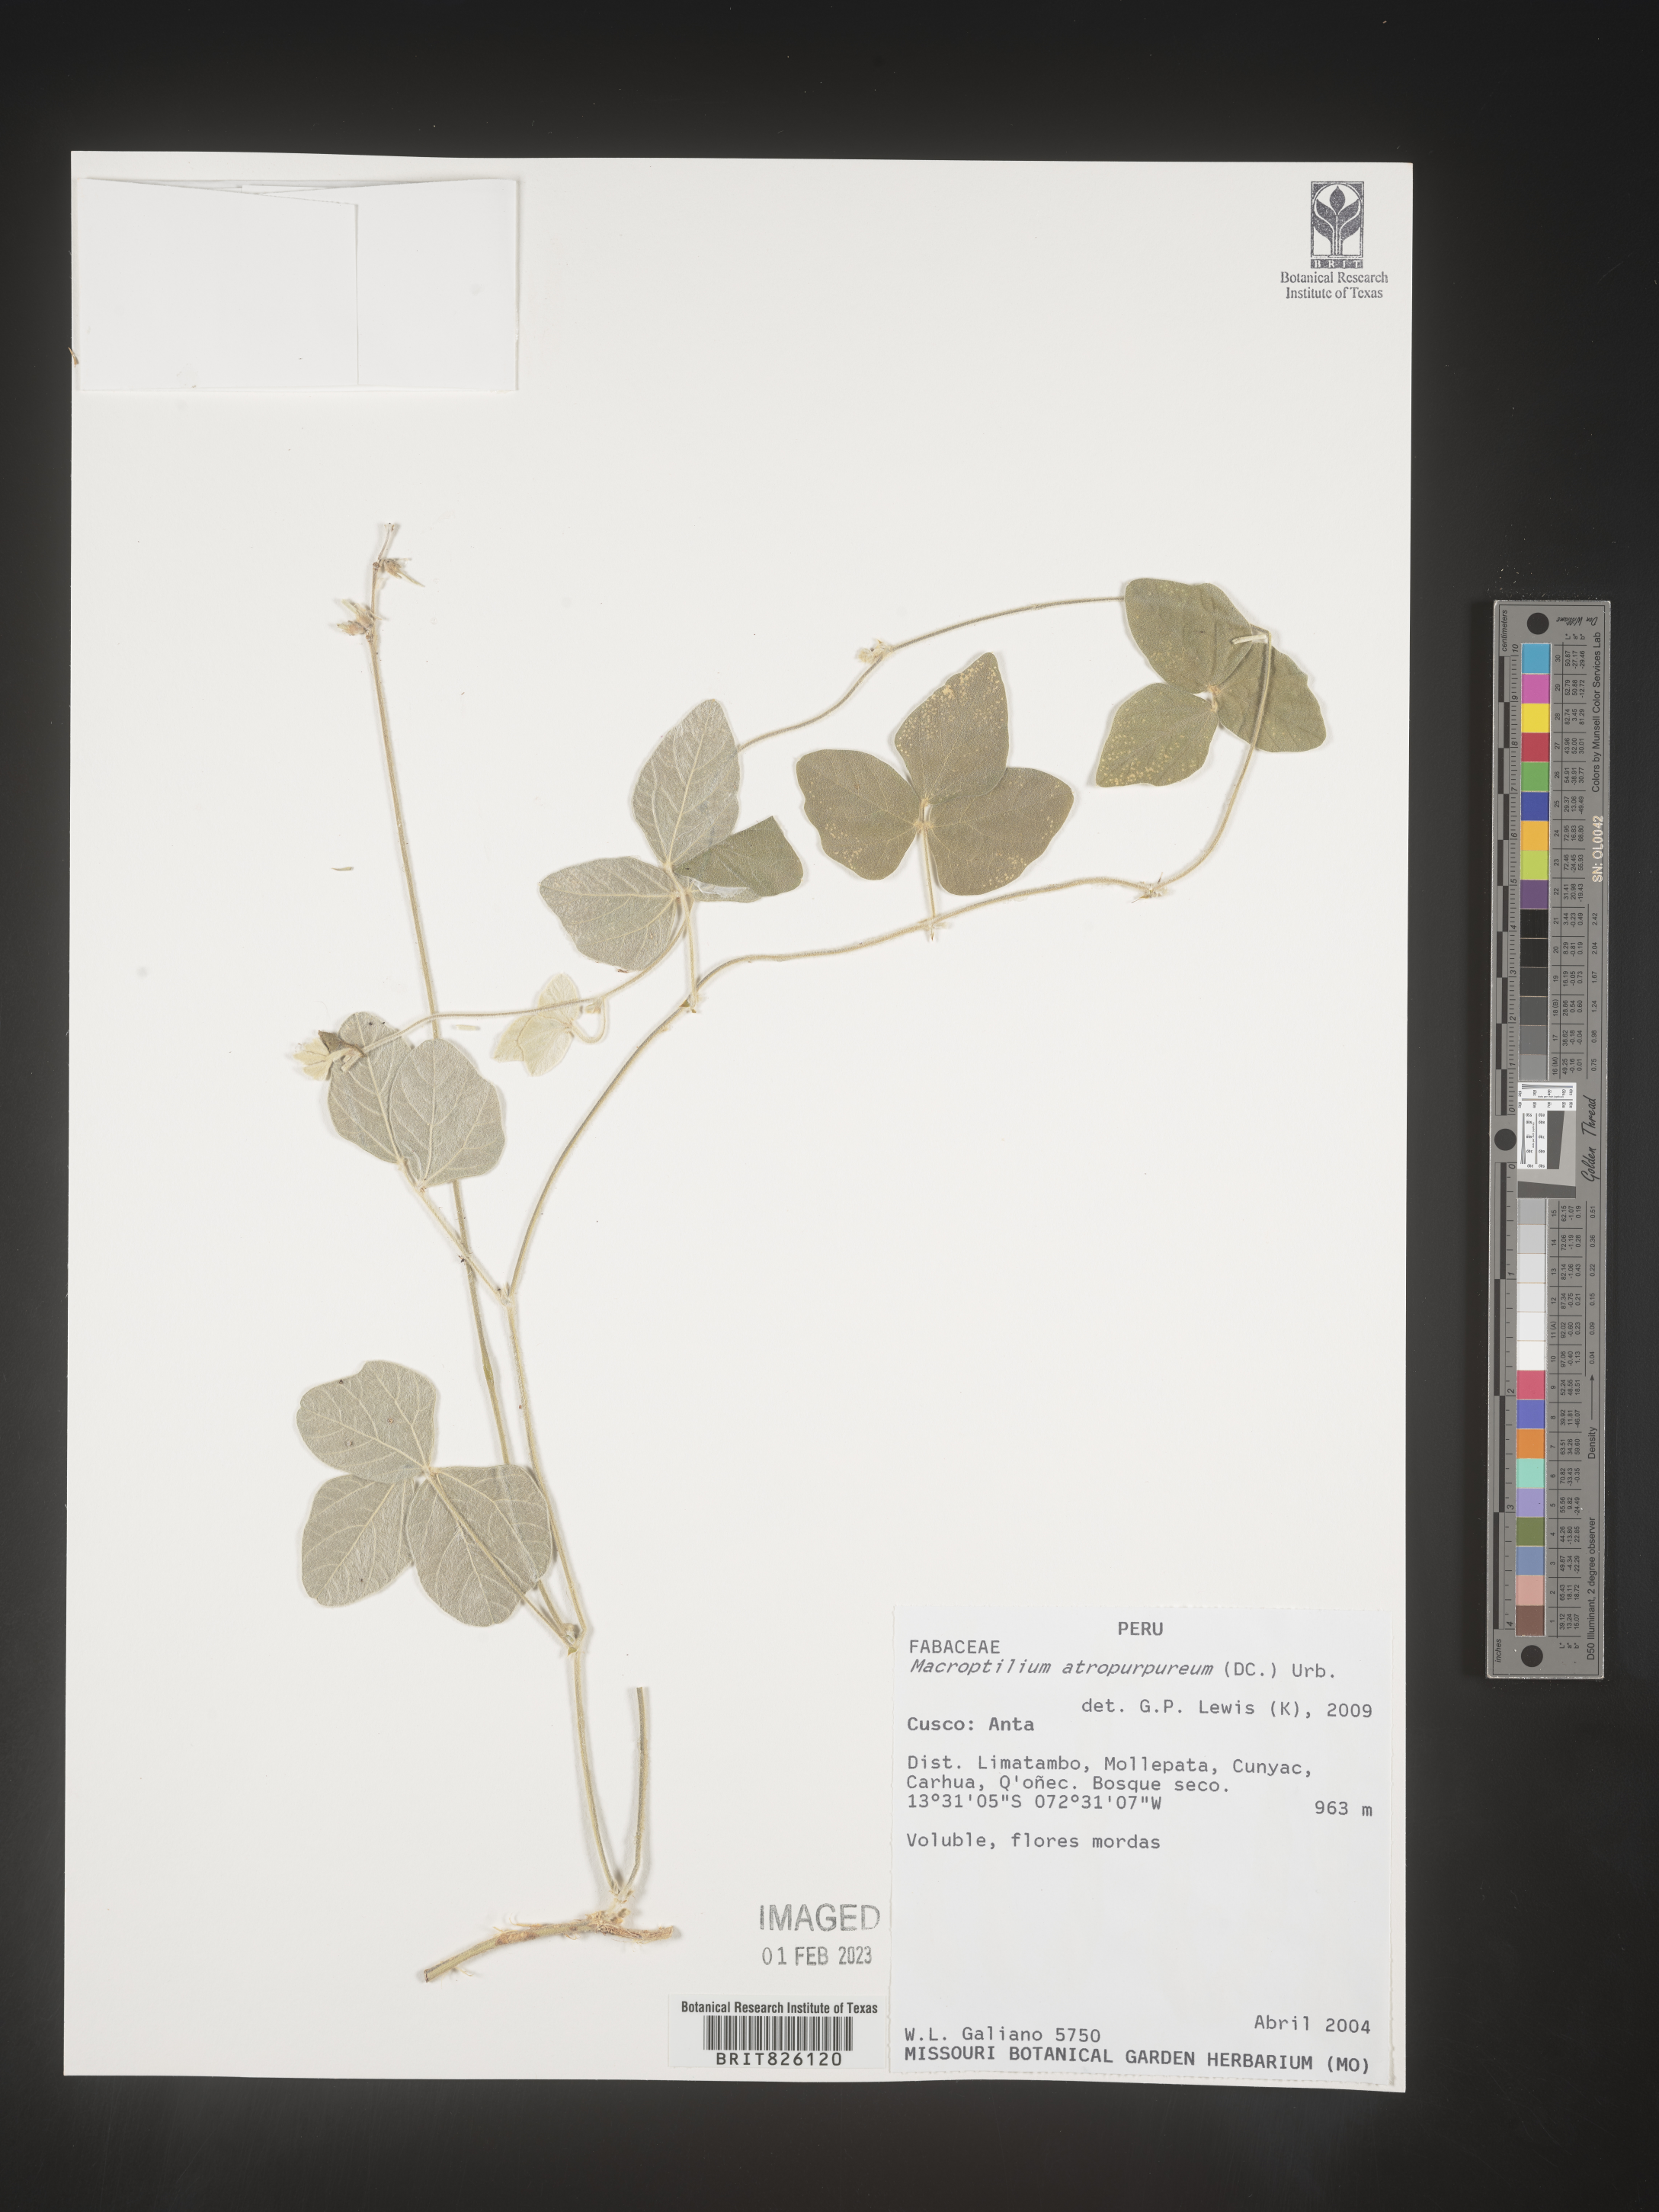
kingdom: Plantae
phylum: Tracheophyta
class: Magnoliopsida
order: Fabales
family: Fabaceae
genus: Macroptilium
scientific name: Macroptilium
